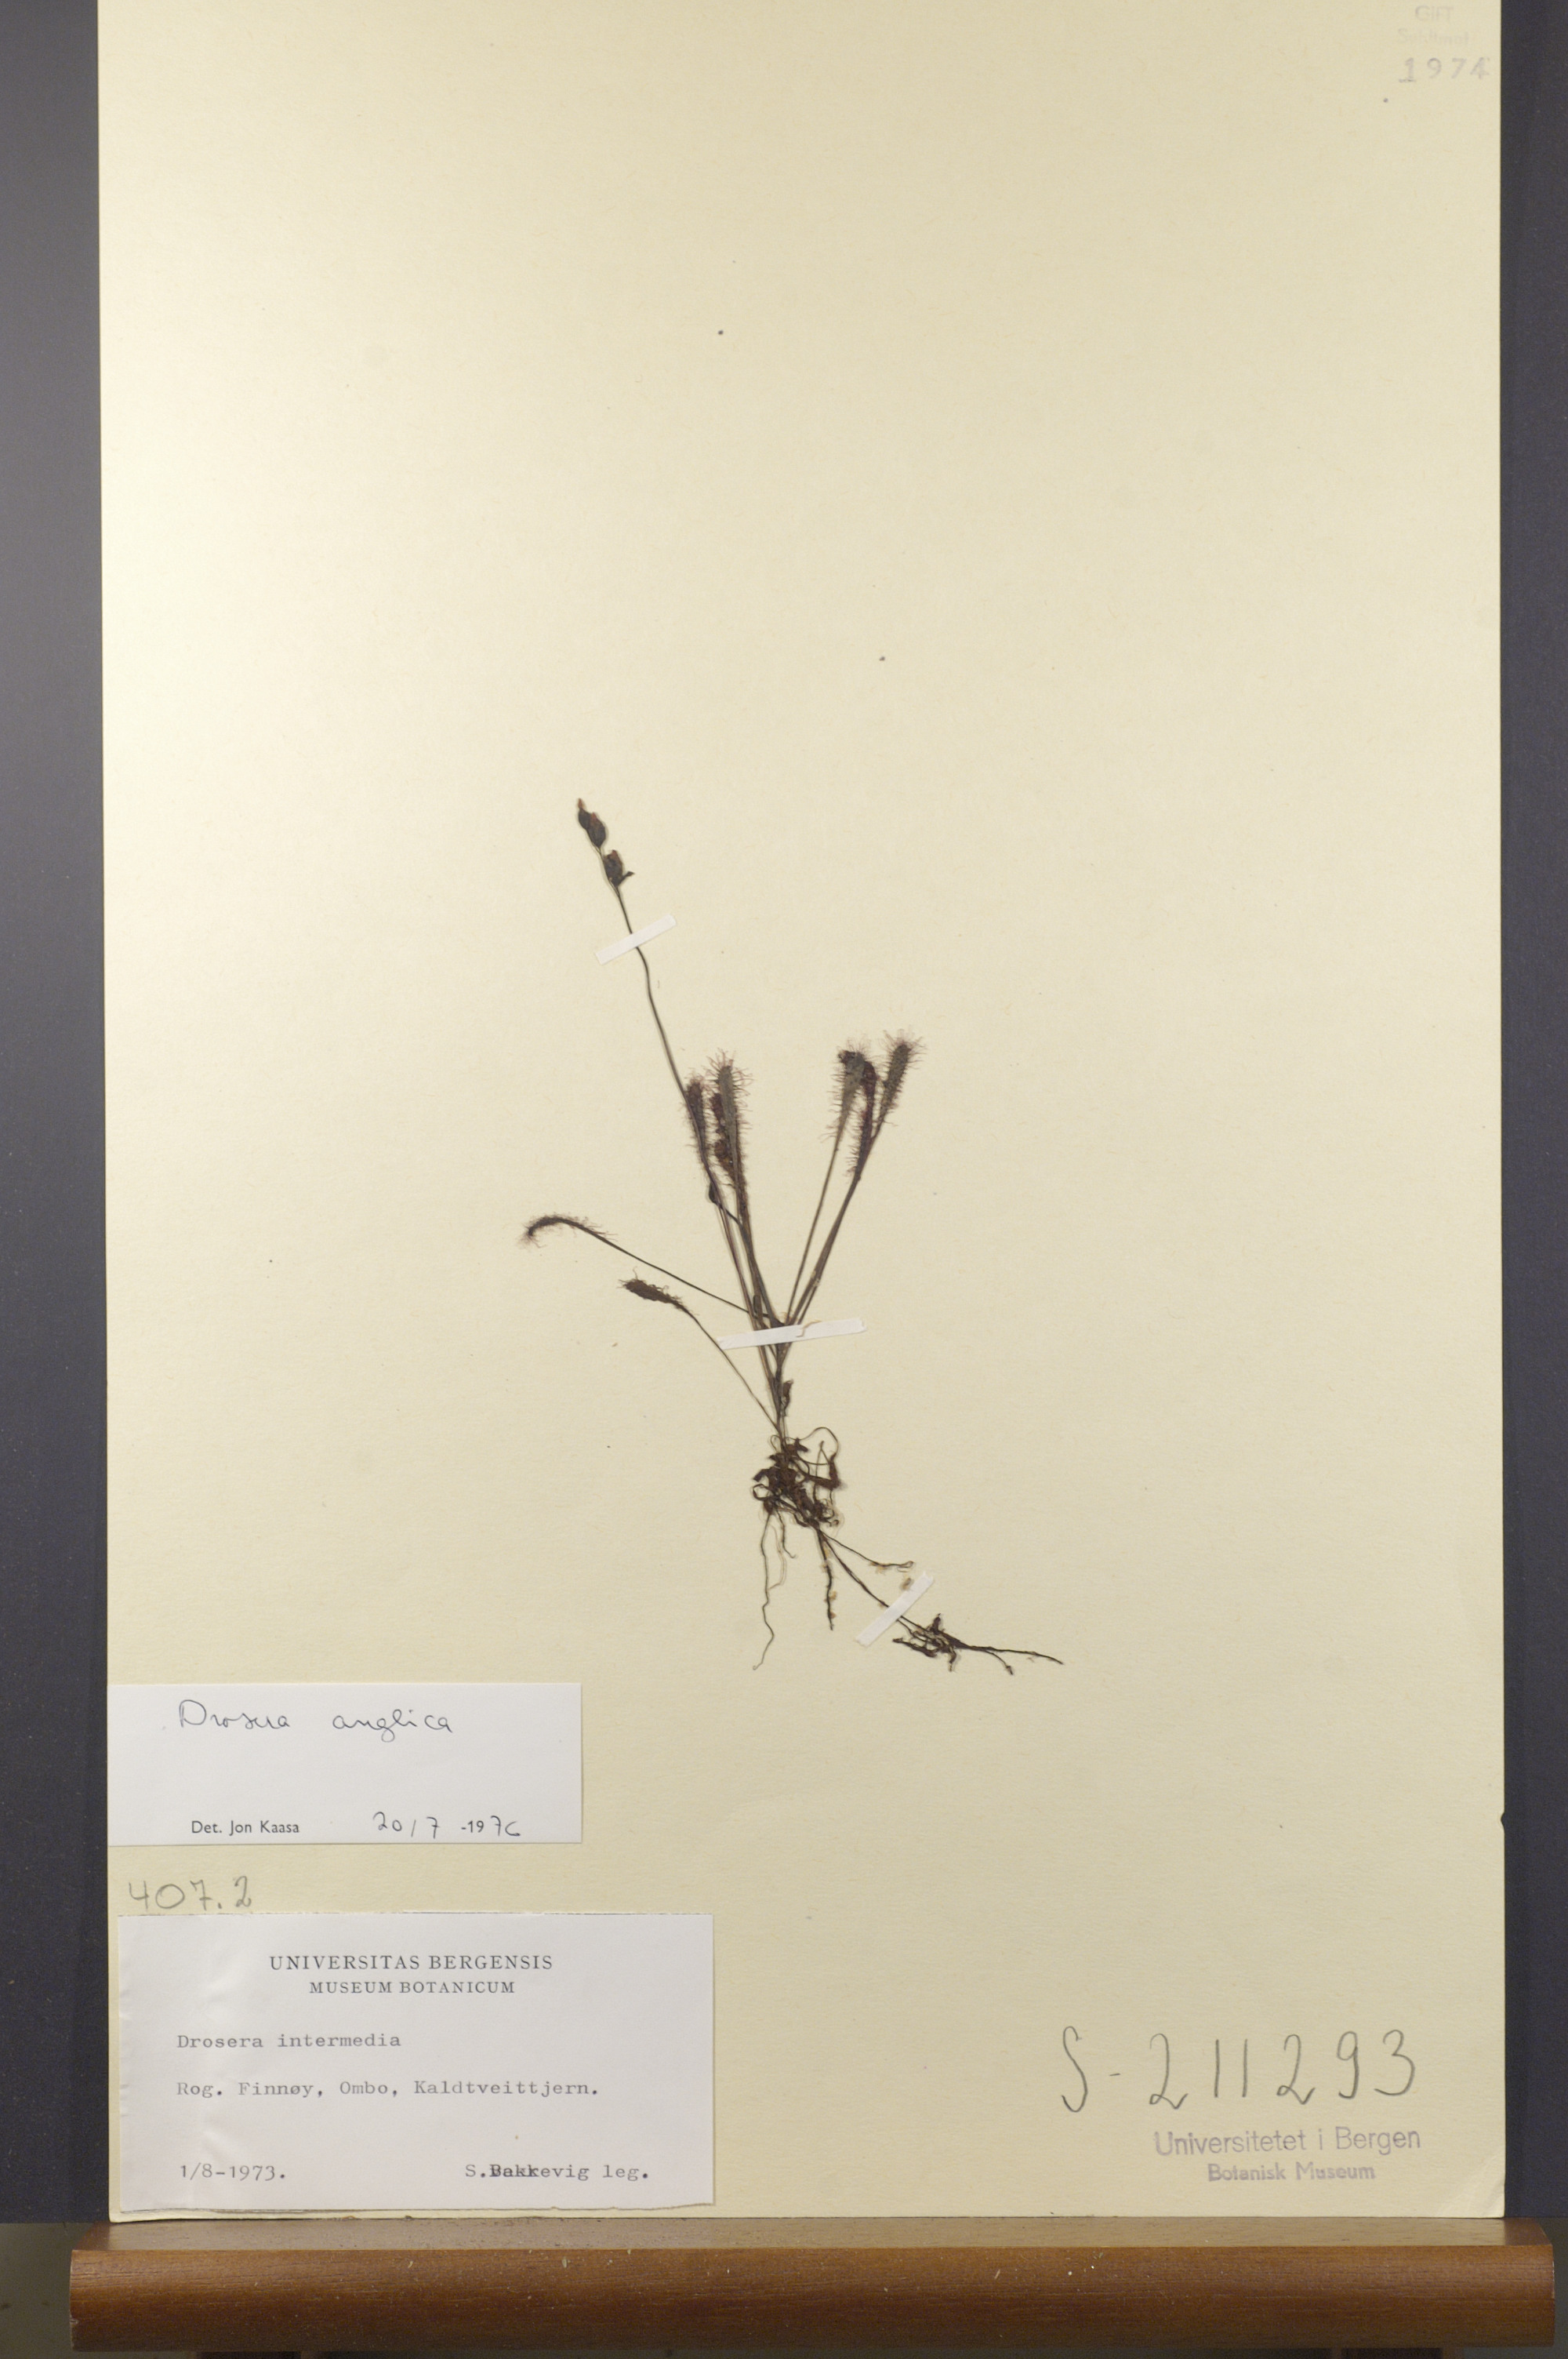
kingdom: Plantae
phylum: Tracheophyta
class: Magnoliopsida
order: Caryophyllales
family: Droseraceae
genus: Drosera
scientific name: Drosera anglica
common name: Great sundew
